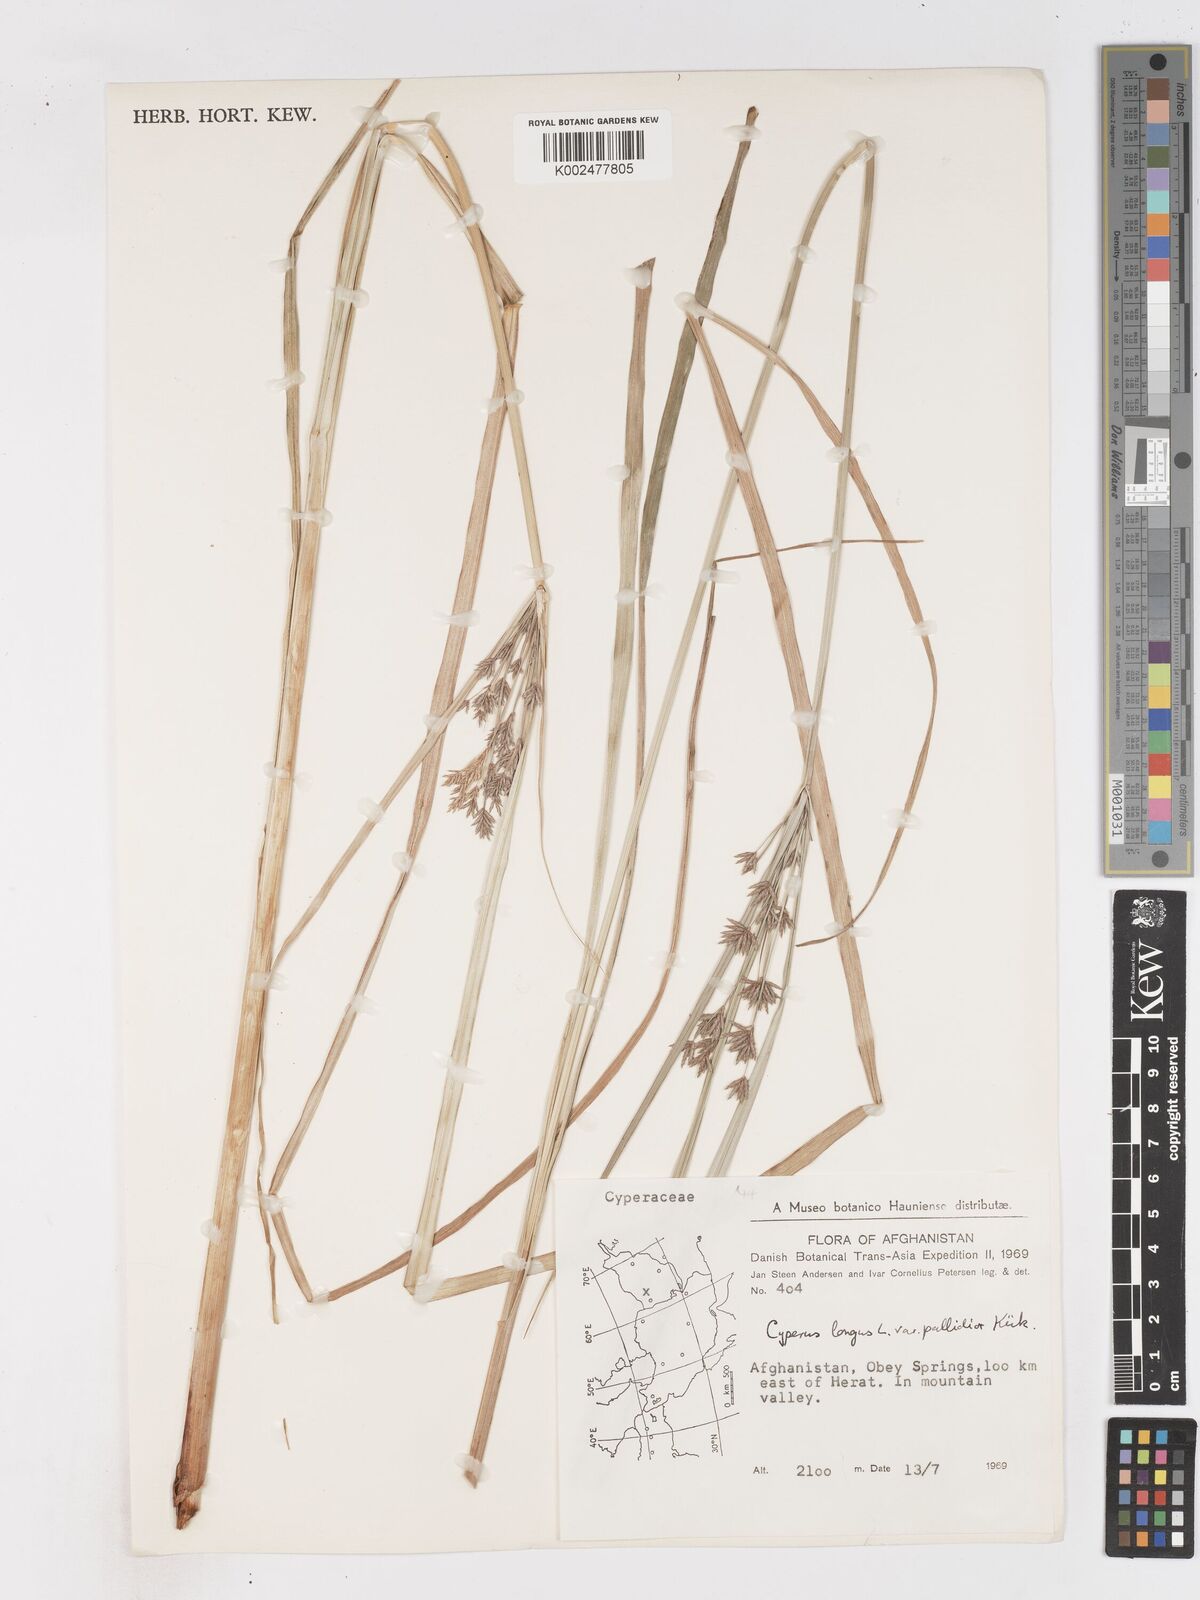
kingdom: Plantae
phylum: Tracheophyta
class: Liliopsida
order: Poales
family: Cyperaceae
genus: Cyperus
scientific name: Cyperus longus
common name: Galingale
